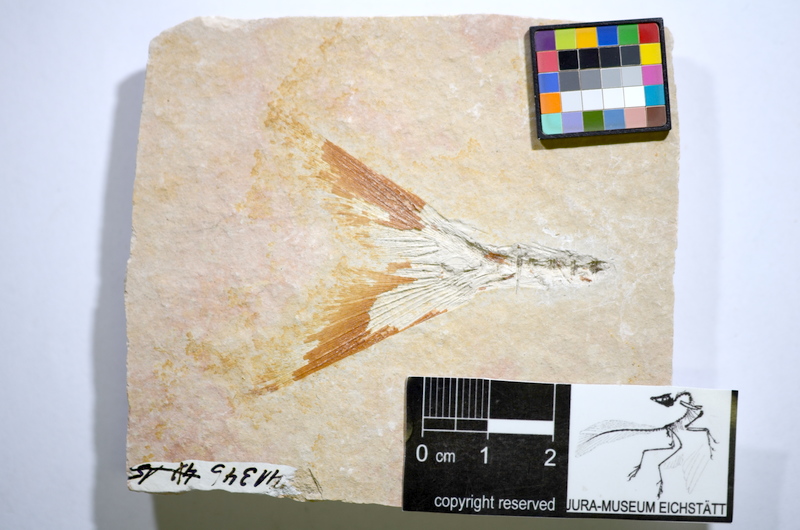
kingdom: Animalia
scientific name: Animalia
